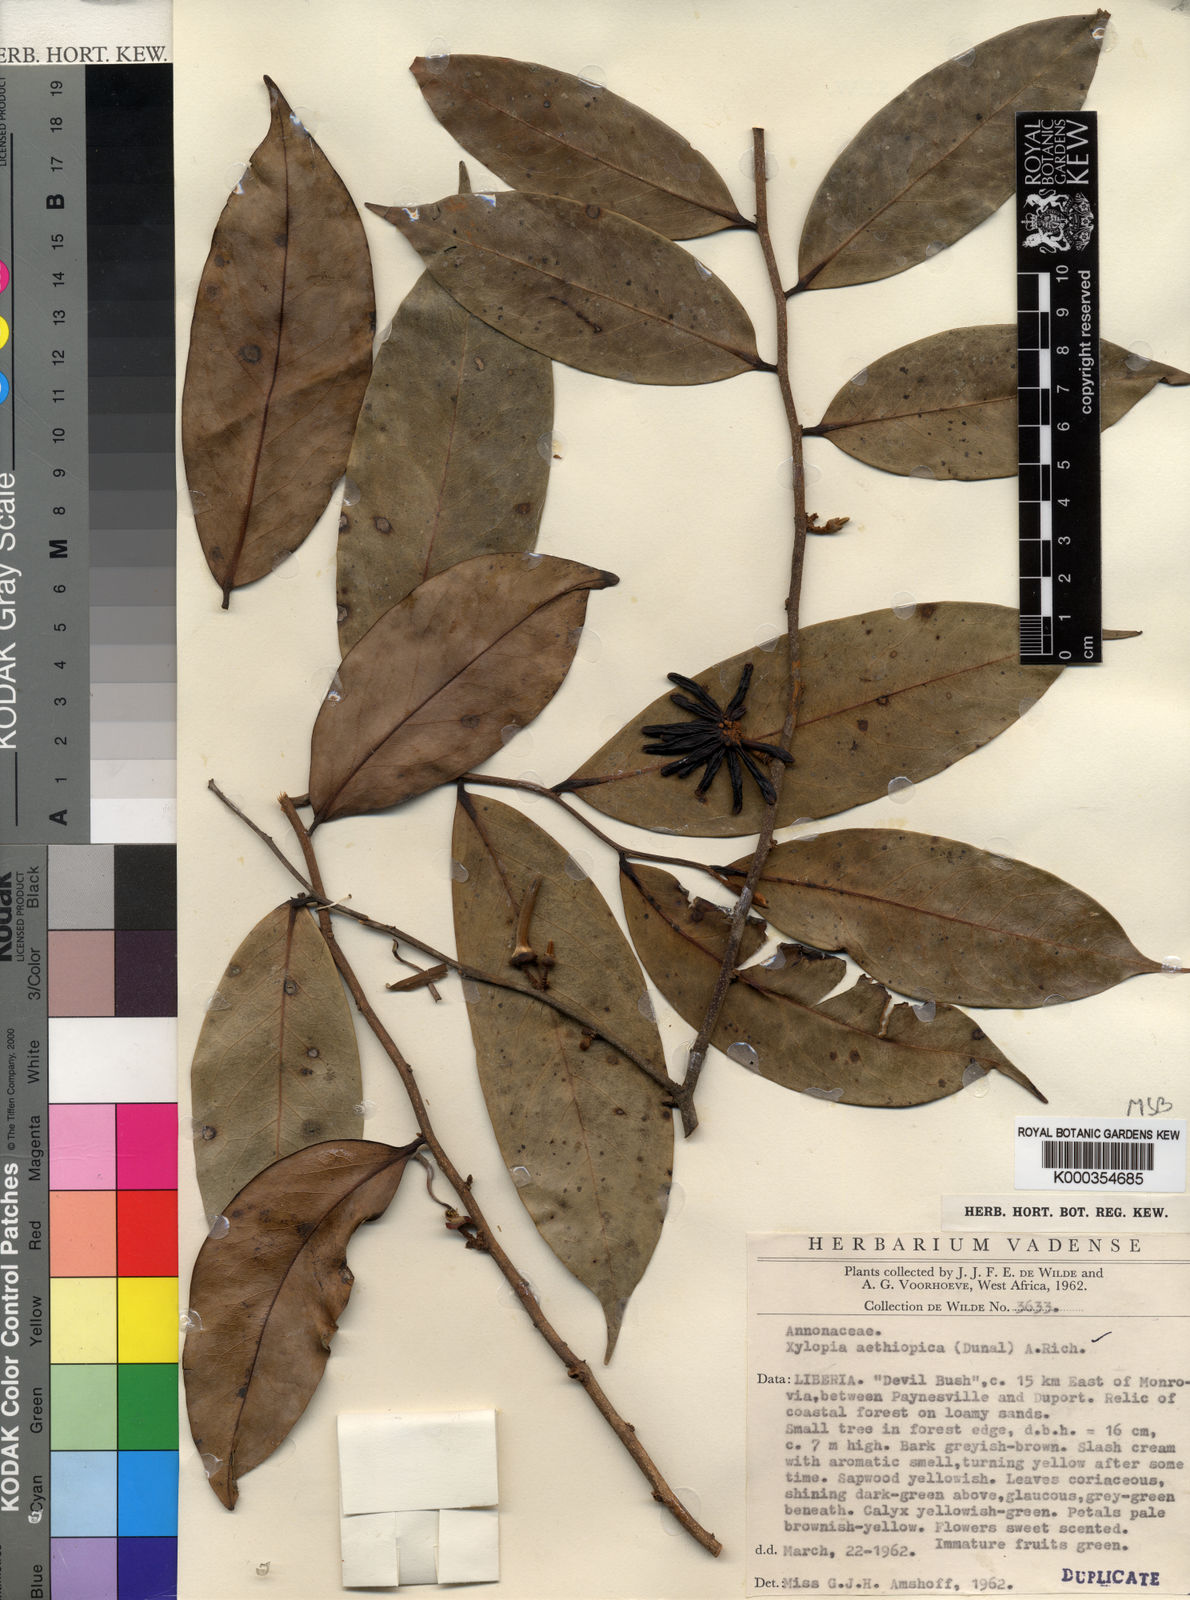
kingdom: Plantae
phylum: Tracheophyta
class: Magnoliopsida
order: Magnoliales
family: Annonaceae
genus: Xylopia
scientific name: Xylopia aethiopica
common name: Ethiopian-pepper
